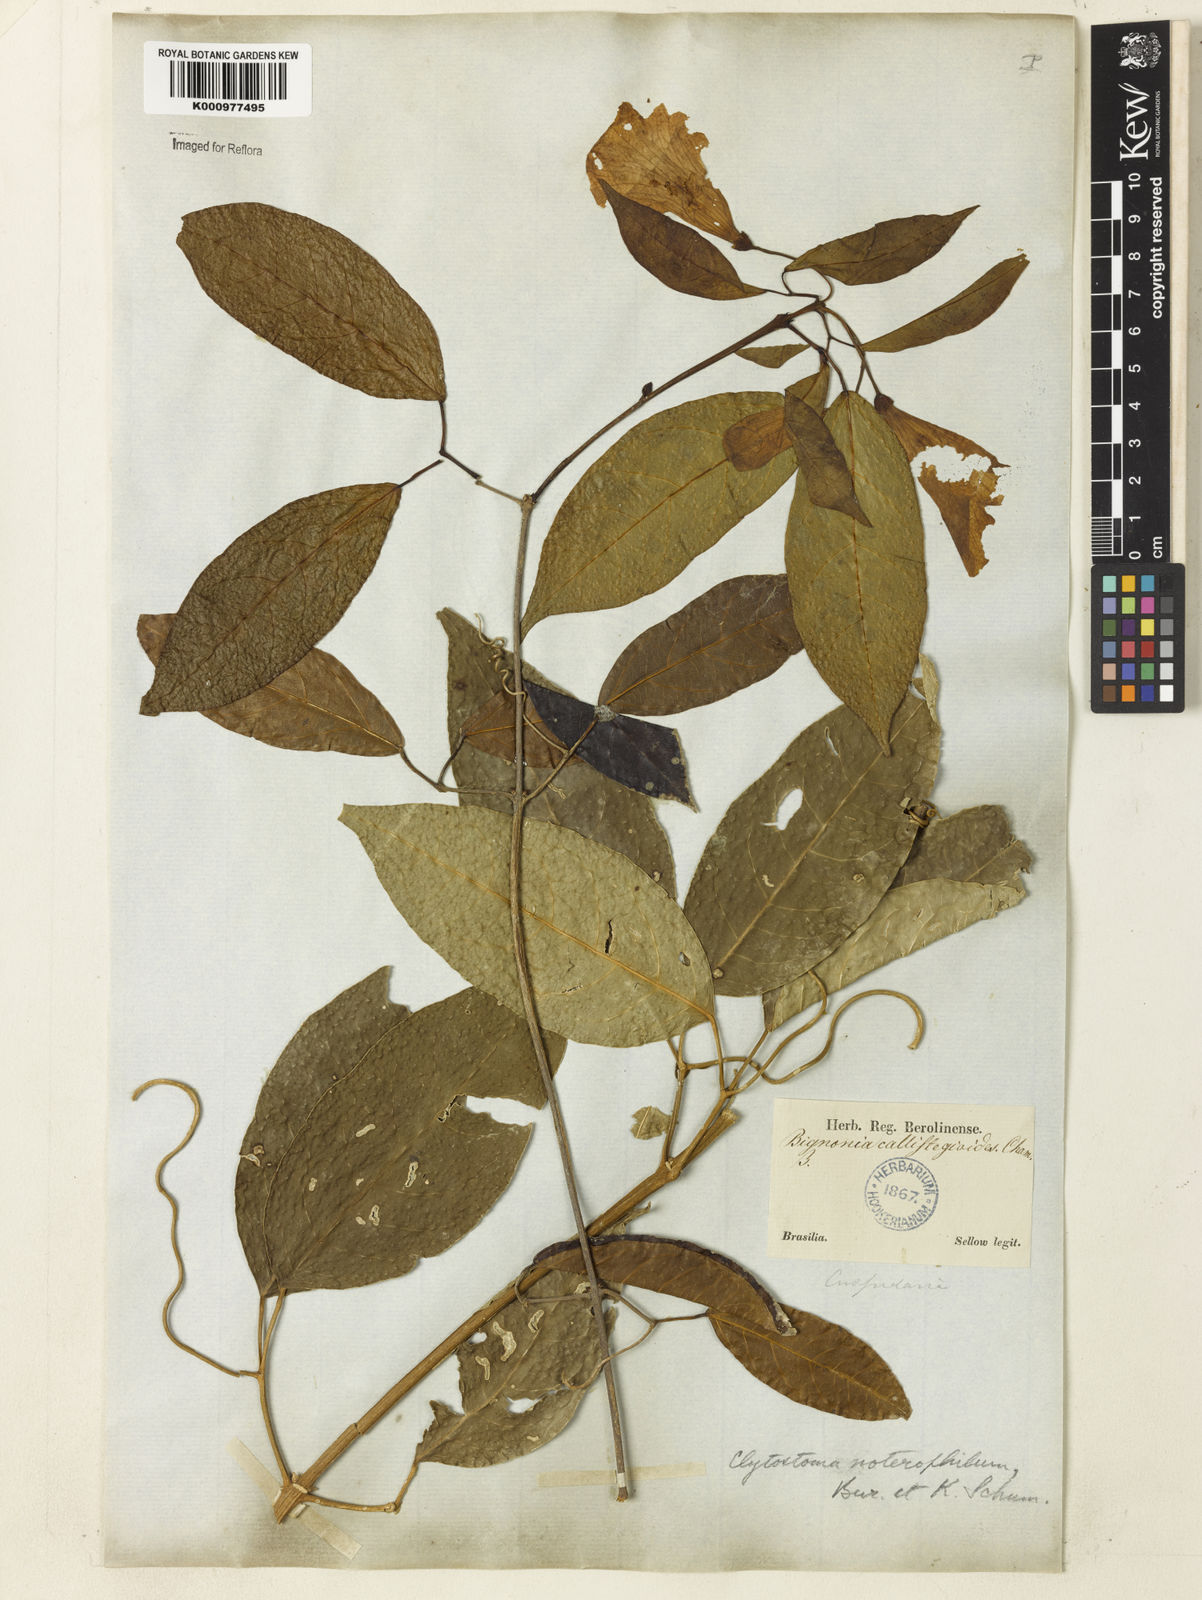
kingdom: Plantae
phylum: Tracheophyta
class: Magnoliopsida
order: Lamiales
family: Bignoniaceae
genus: Bignonia
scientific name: Bignonia binata
